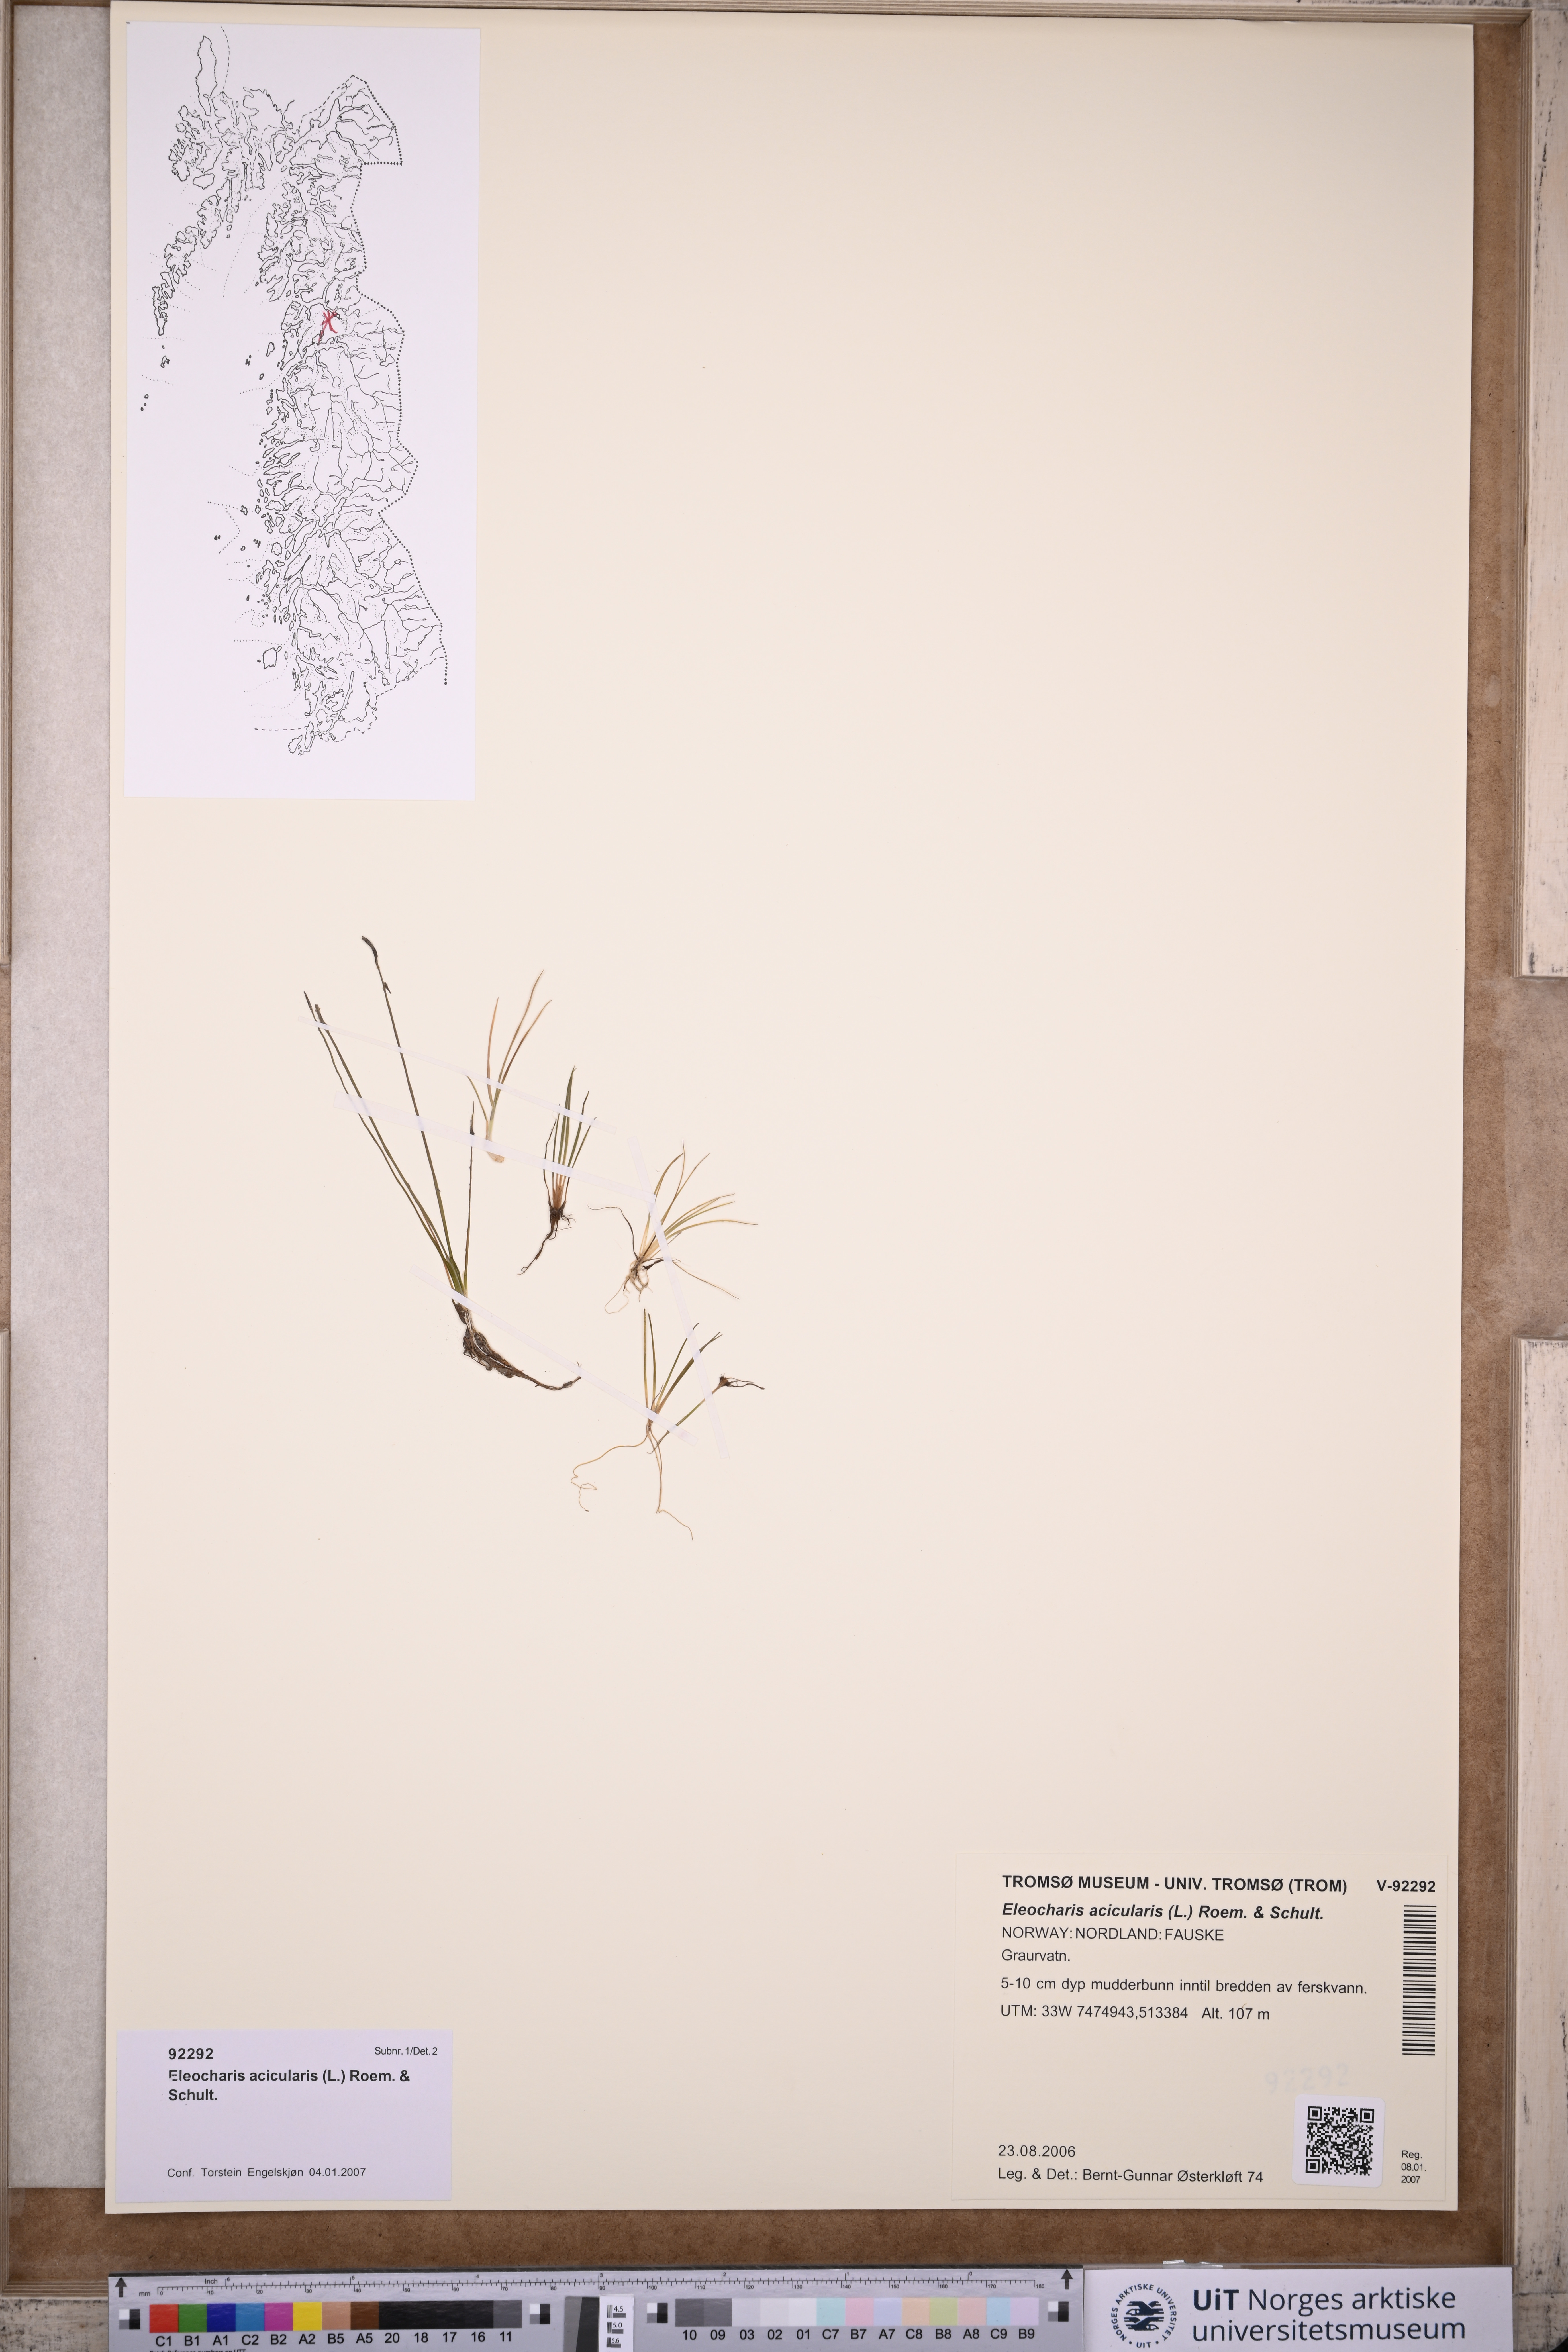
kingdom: Plantae
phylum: Tracheophyta
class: Liliopsida
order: Poales
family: Cyperaceae
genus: Eleocharis
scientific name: Eleocharis acicularis
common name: Needle spike-rush
